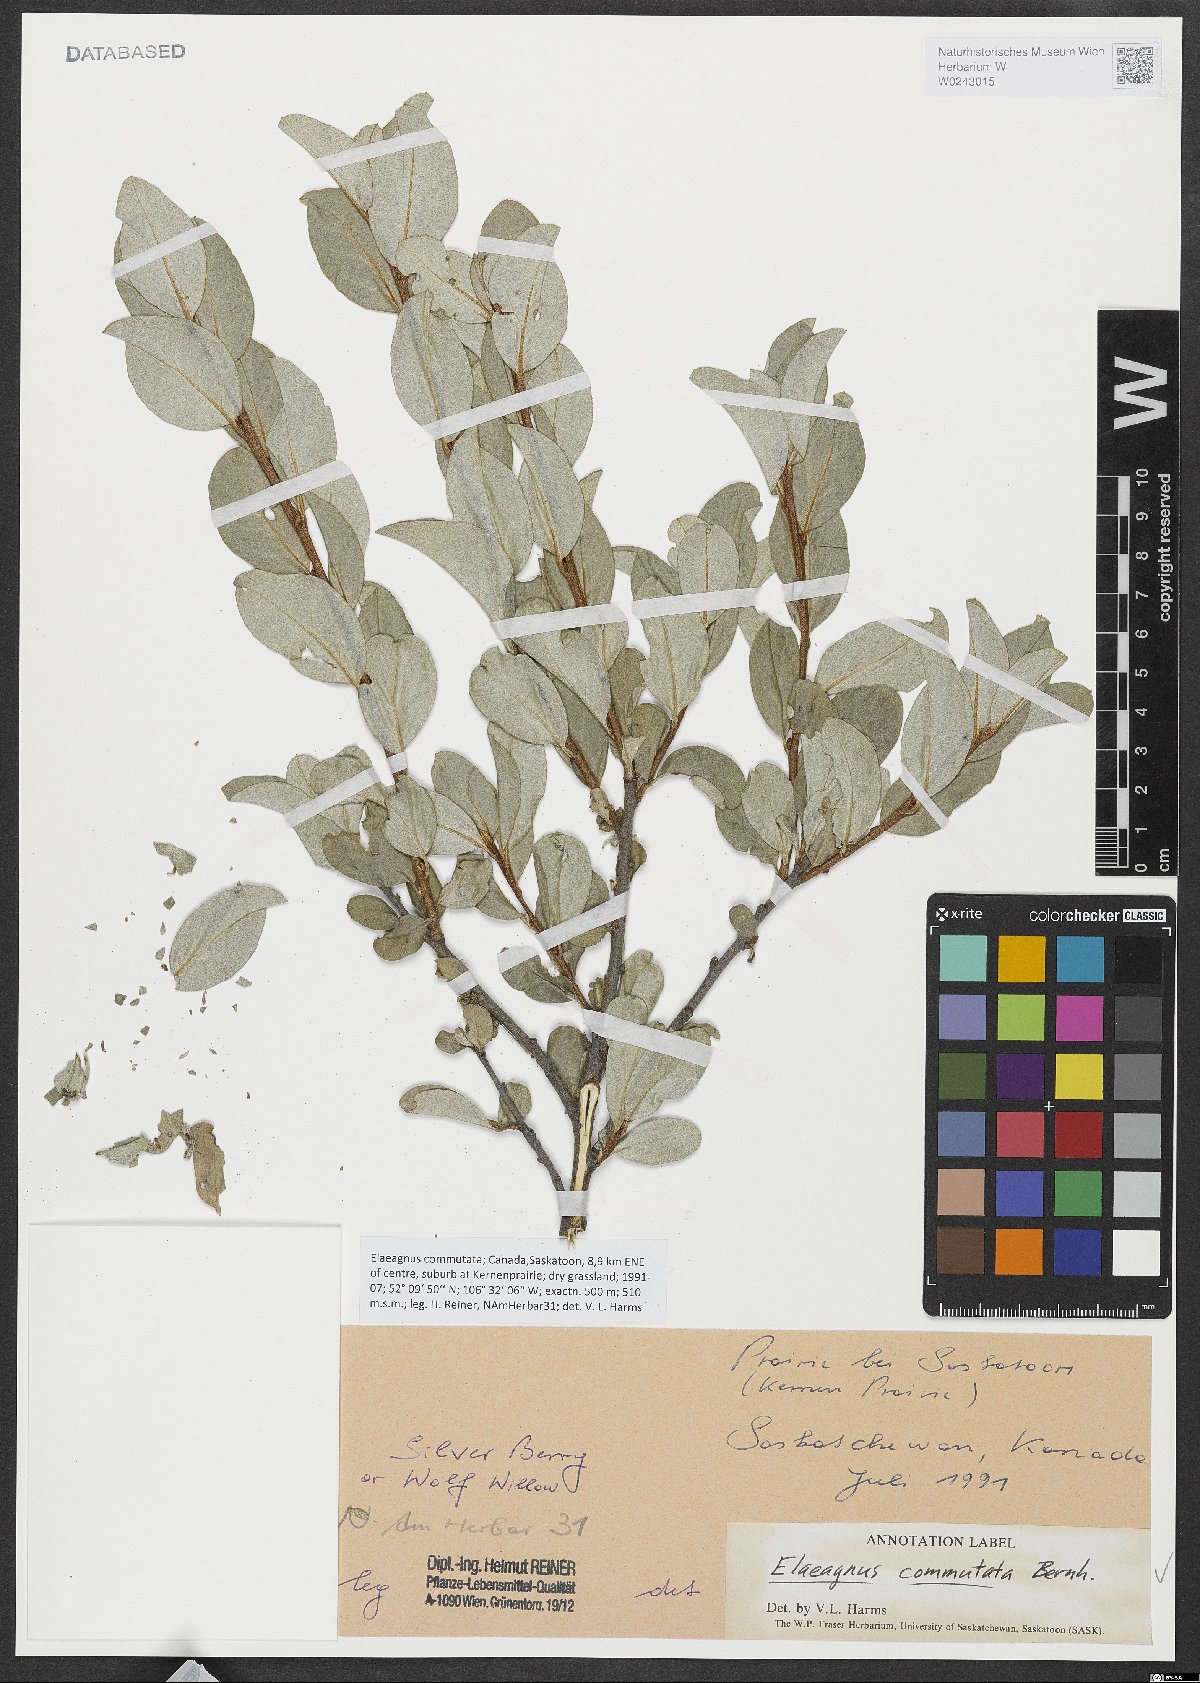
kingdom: Plantae
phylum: Tracheophyta
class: Magnoliopsida
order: Rosales
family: Elaeagnaceae
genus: Elaeagnus
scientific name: Elaeagnus commutata
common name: Silverberry
